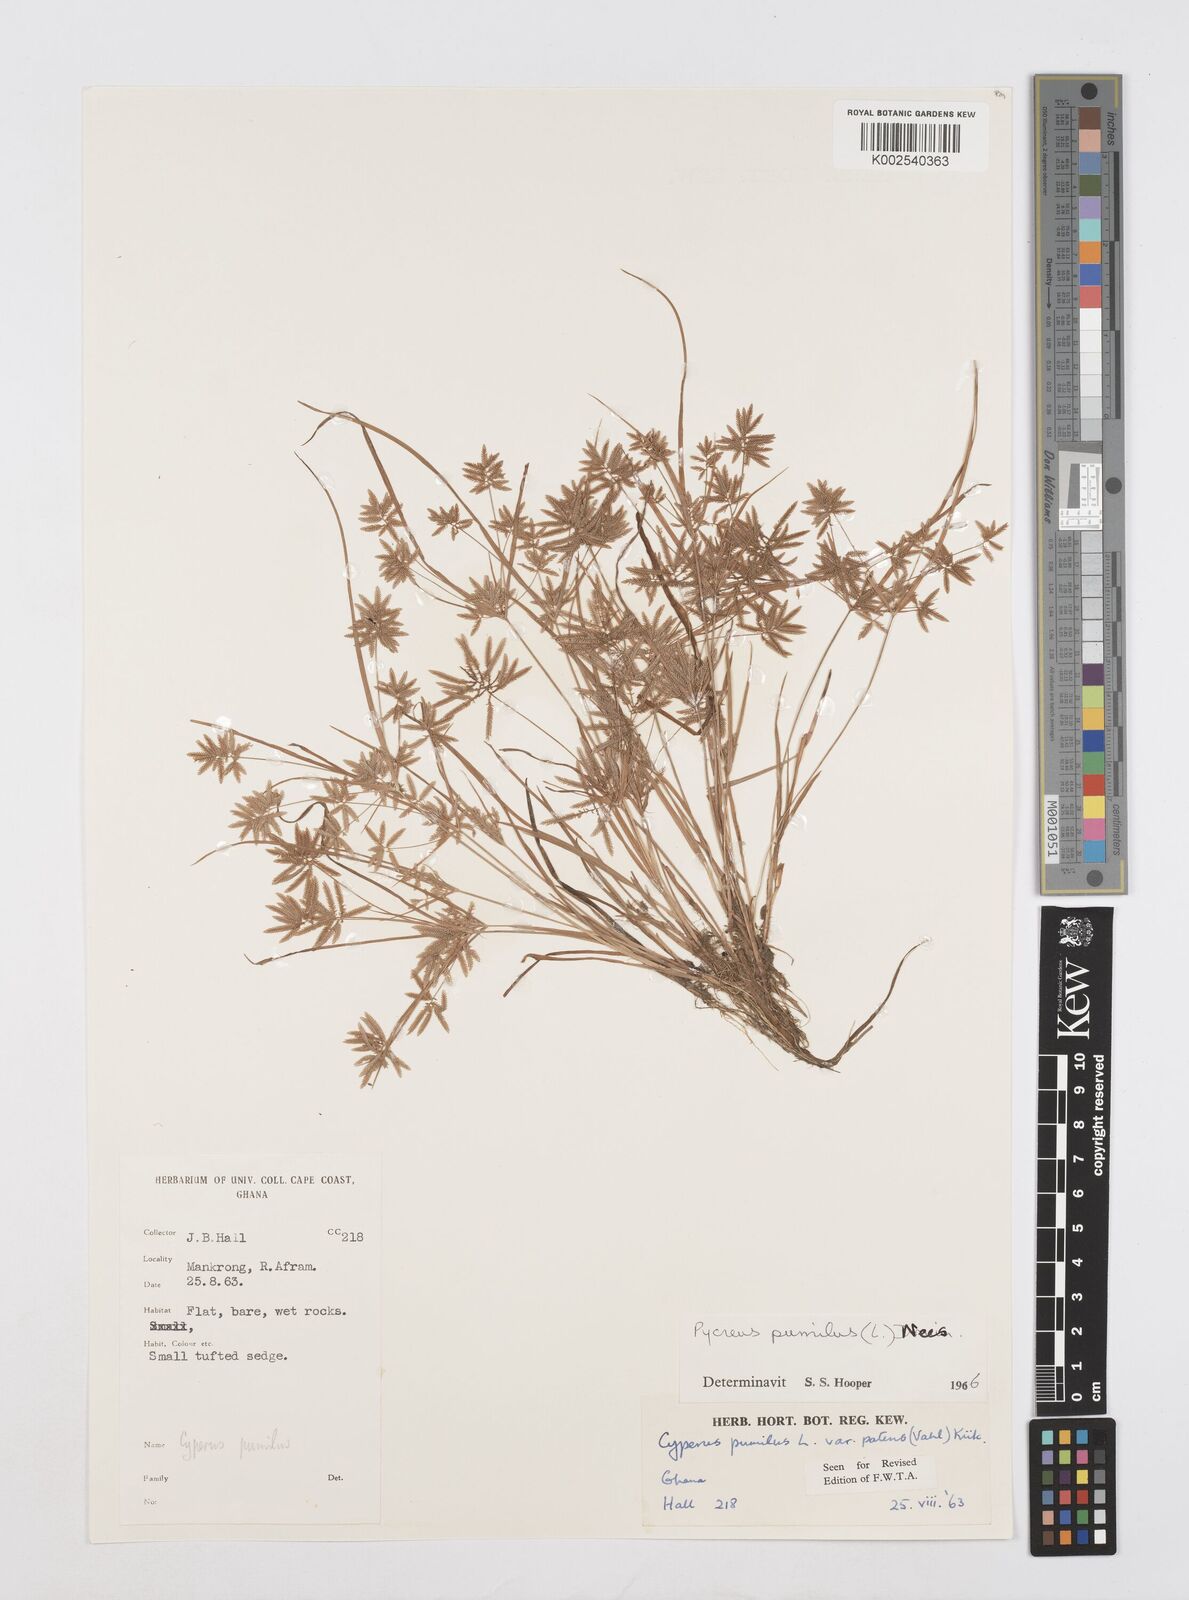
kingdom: Plantae
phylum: Tracheophyta
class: Liliopsida
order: Poales
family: Cyperaceae
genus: Cyperus
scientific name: Cyperus pumilus
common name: Low flatsedge
